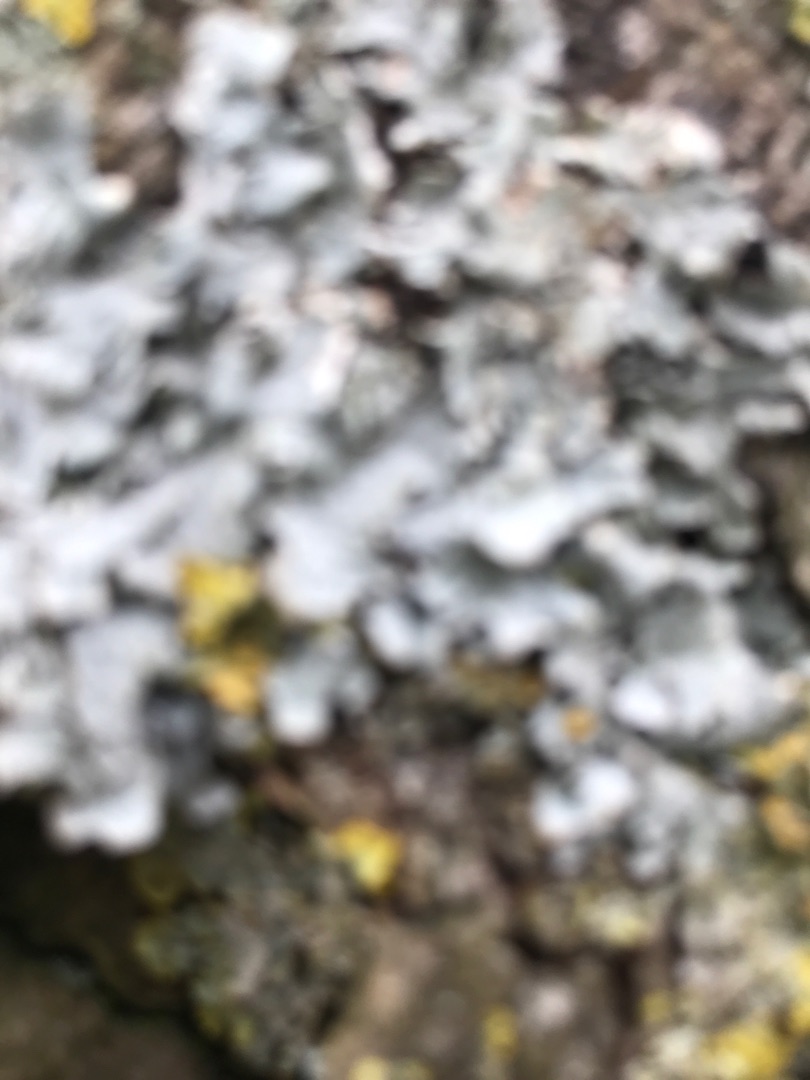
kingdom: Fungi
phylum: Ascomycota
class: Lecanoromycetes
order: Caliciales
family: Physciaceae
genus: Physcia
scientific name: Physcia
